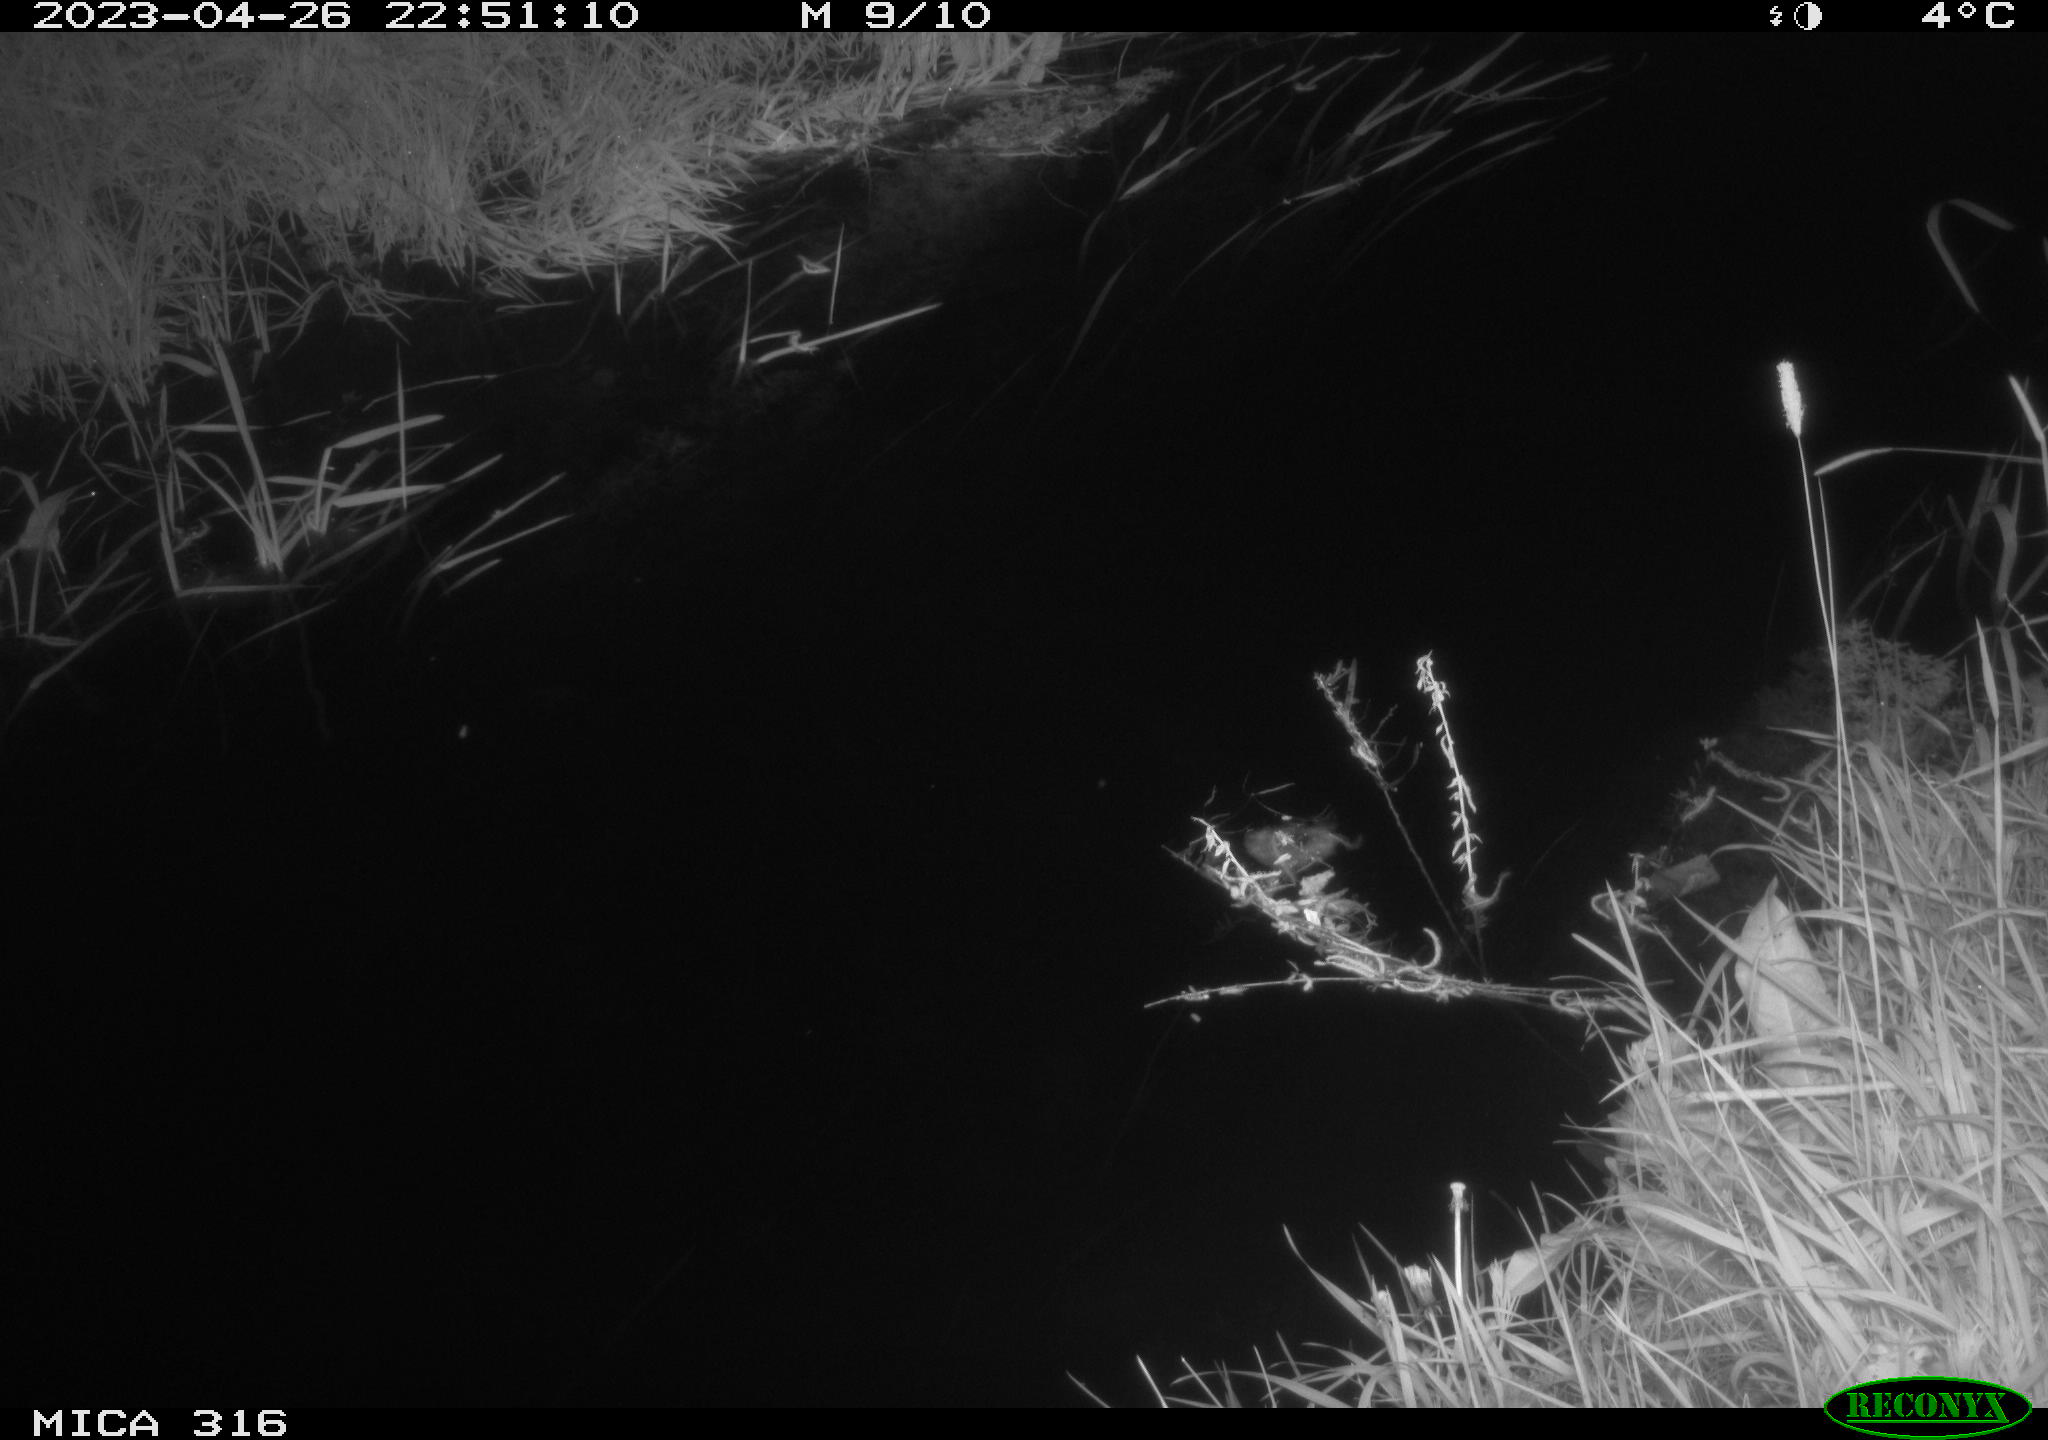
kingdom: Animalia
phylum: Chordata
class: Aves
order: Anseriformes
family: Anatidae
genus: Anas
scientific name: Anas
